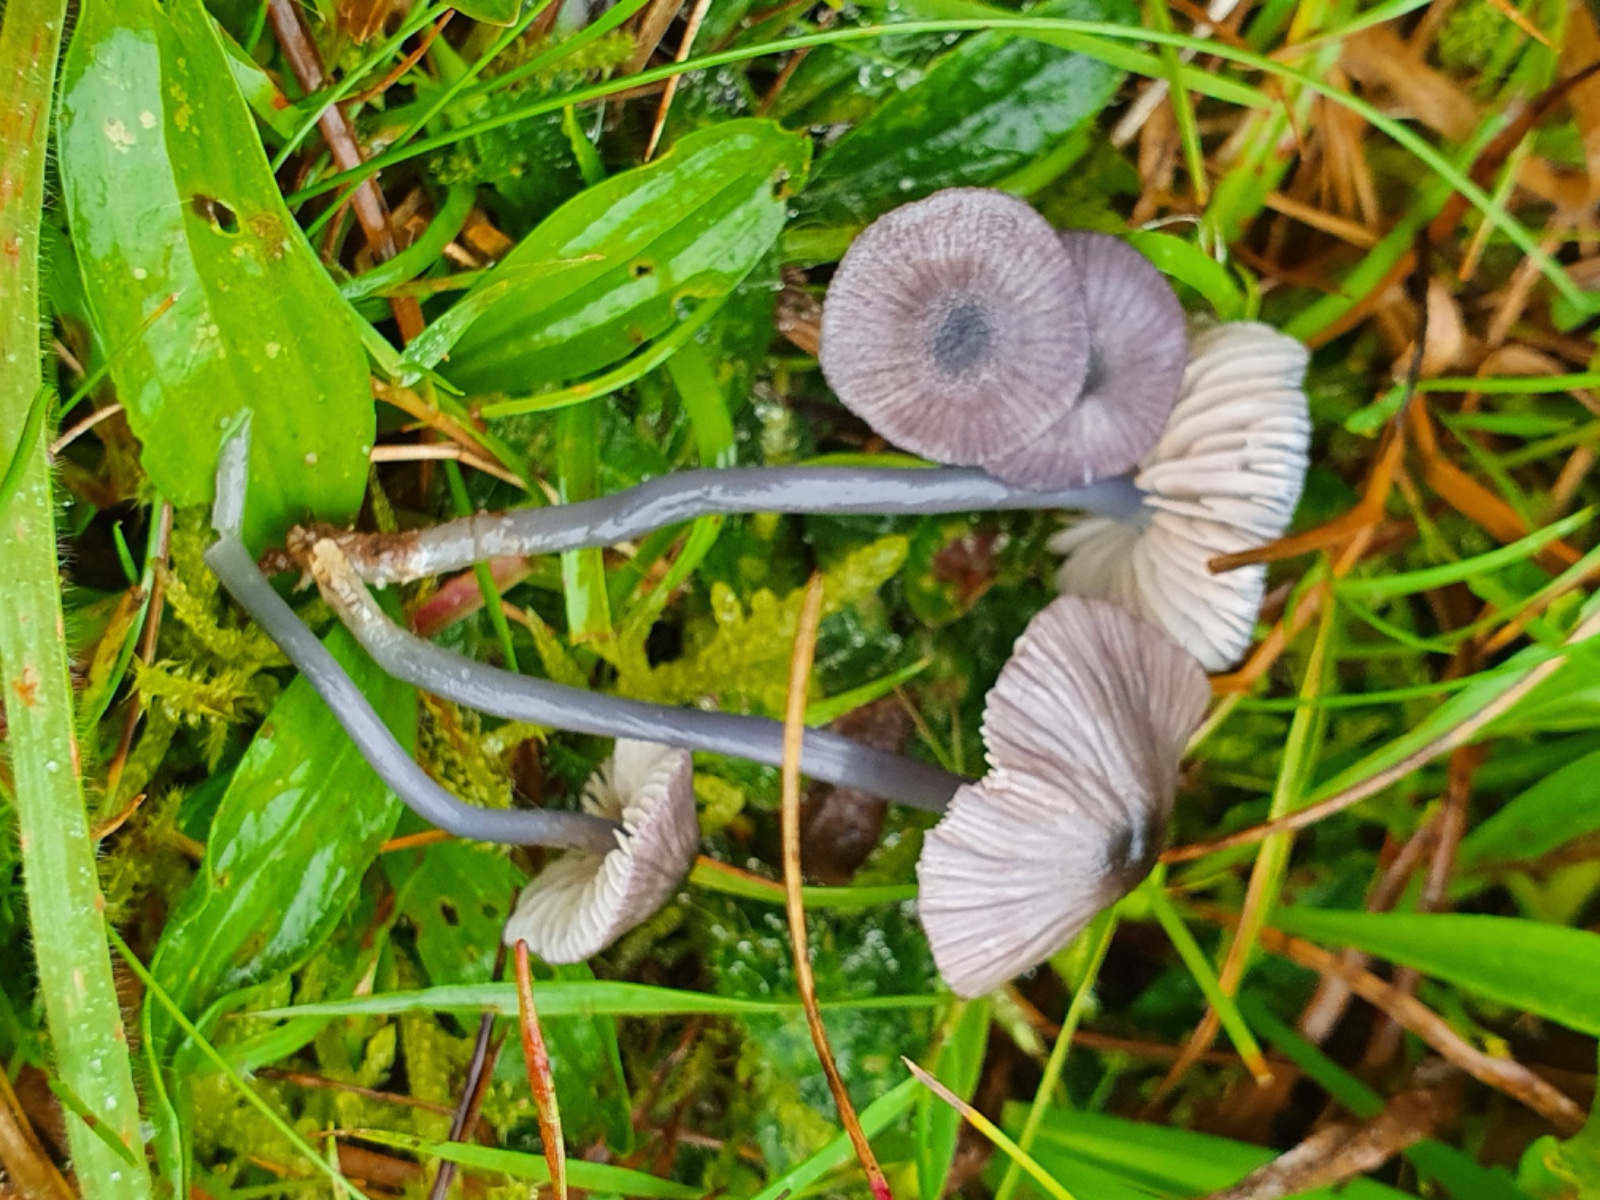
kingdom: Fungi
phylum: Basidiomycota
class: Agaricomycetes
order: Agaricales
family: Entolomataceae
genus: Entoloma
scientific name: Entoloma
